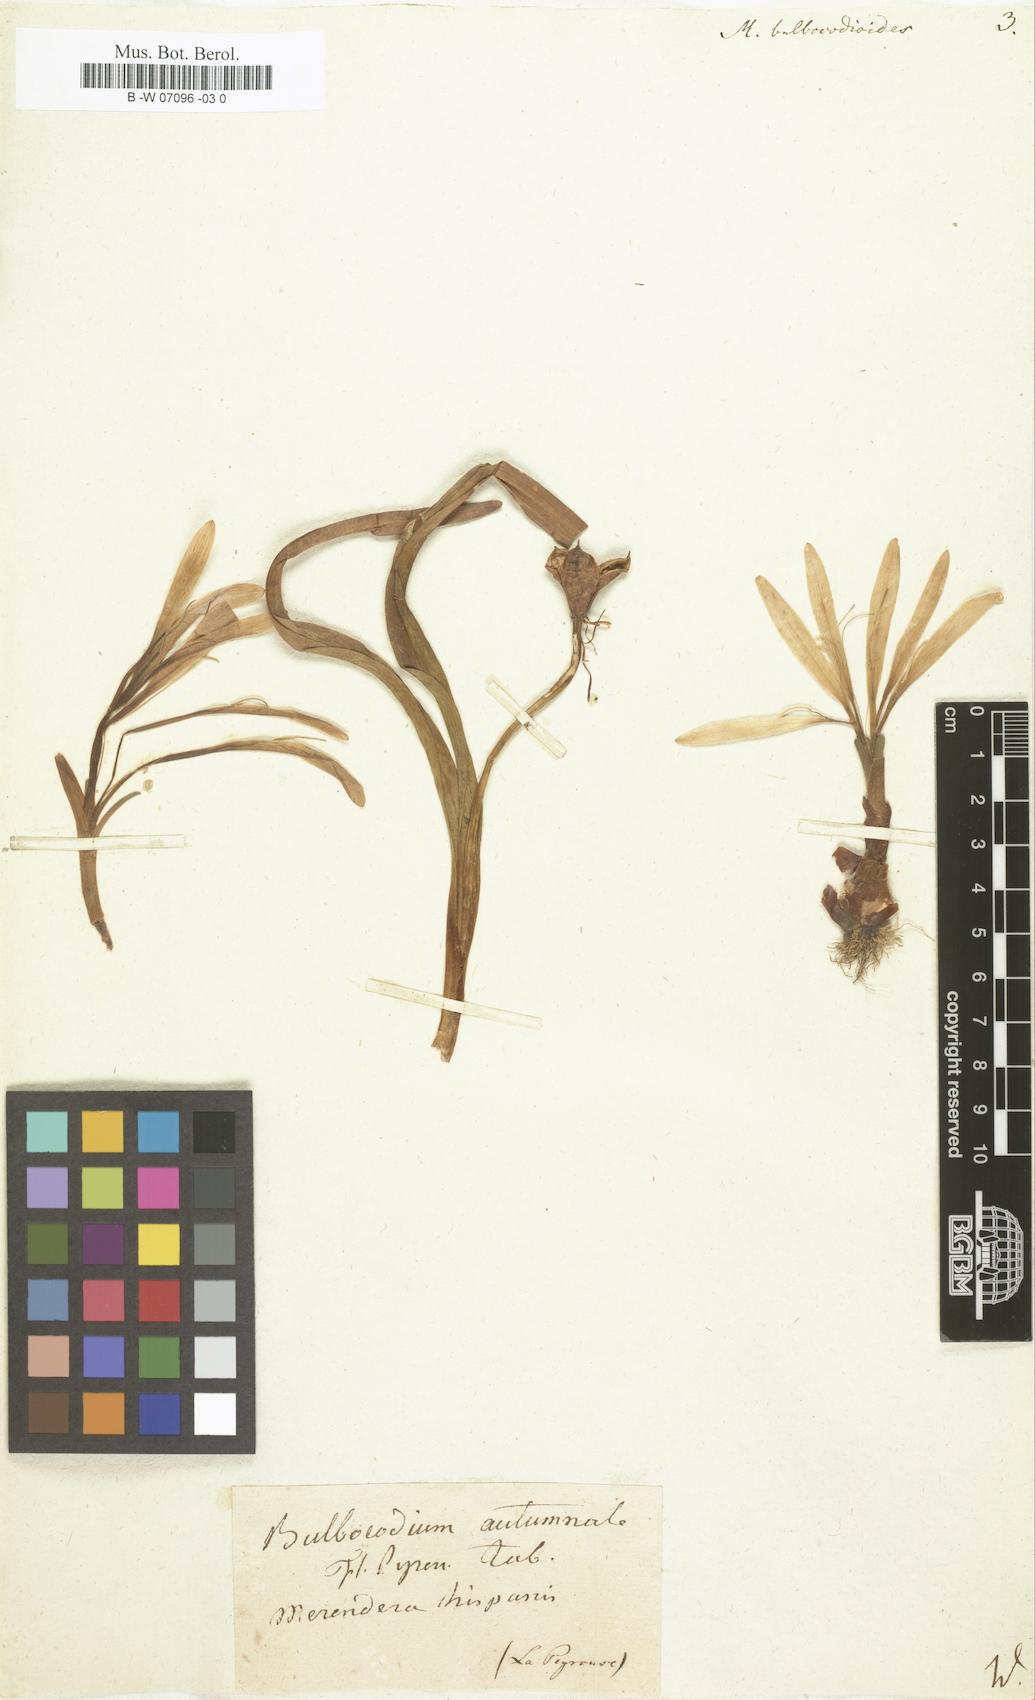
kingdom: Plantae
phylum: Tracheophyta
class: Liliopsida
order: Liliales
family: Colchicaceae
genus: Colchicum
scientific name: Colchicum
